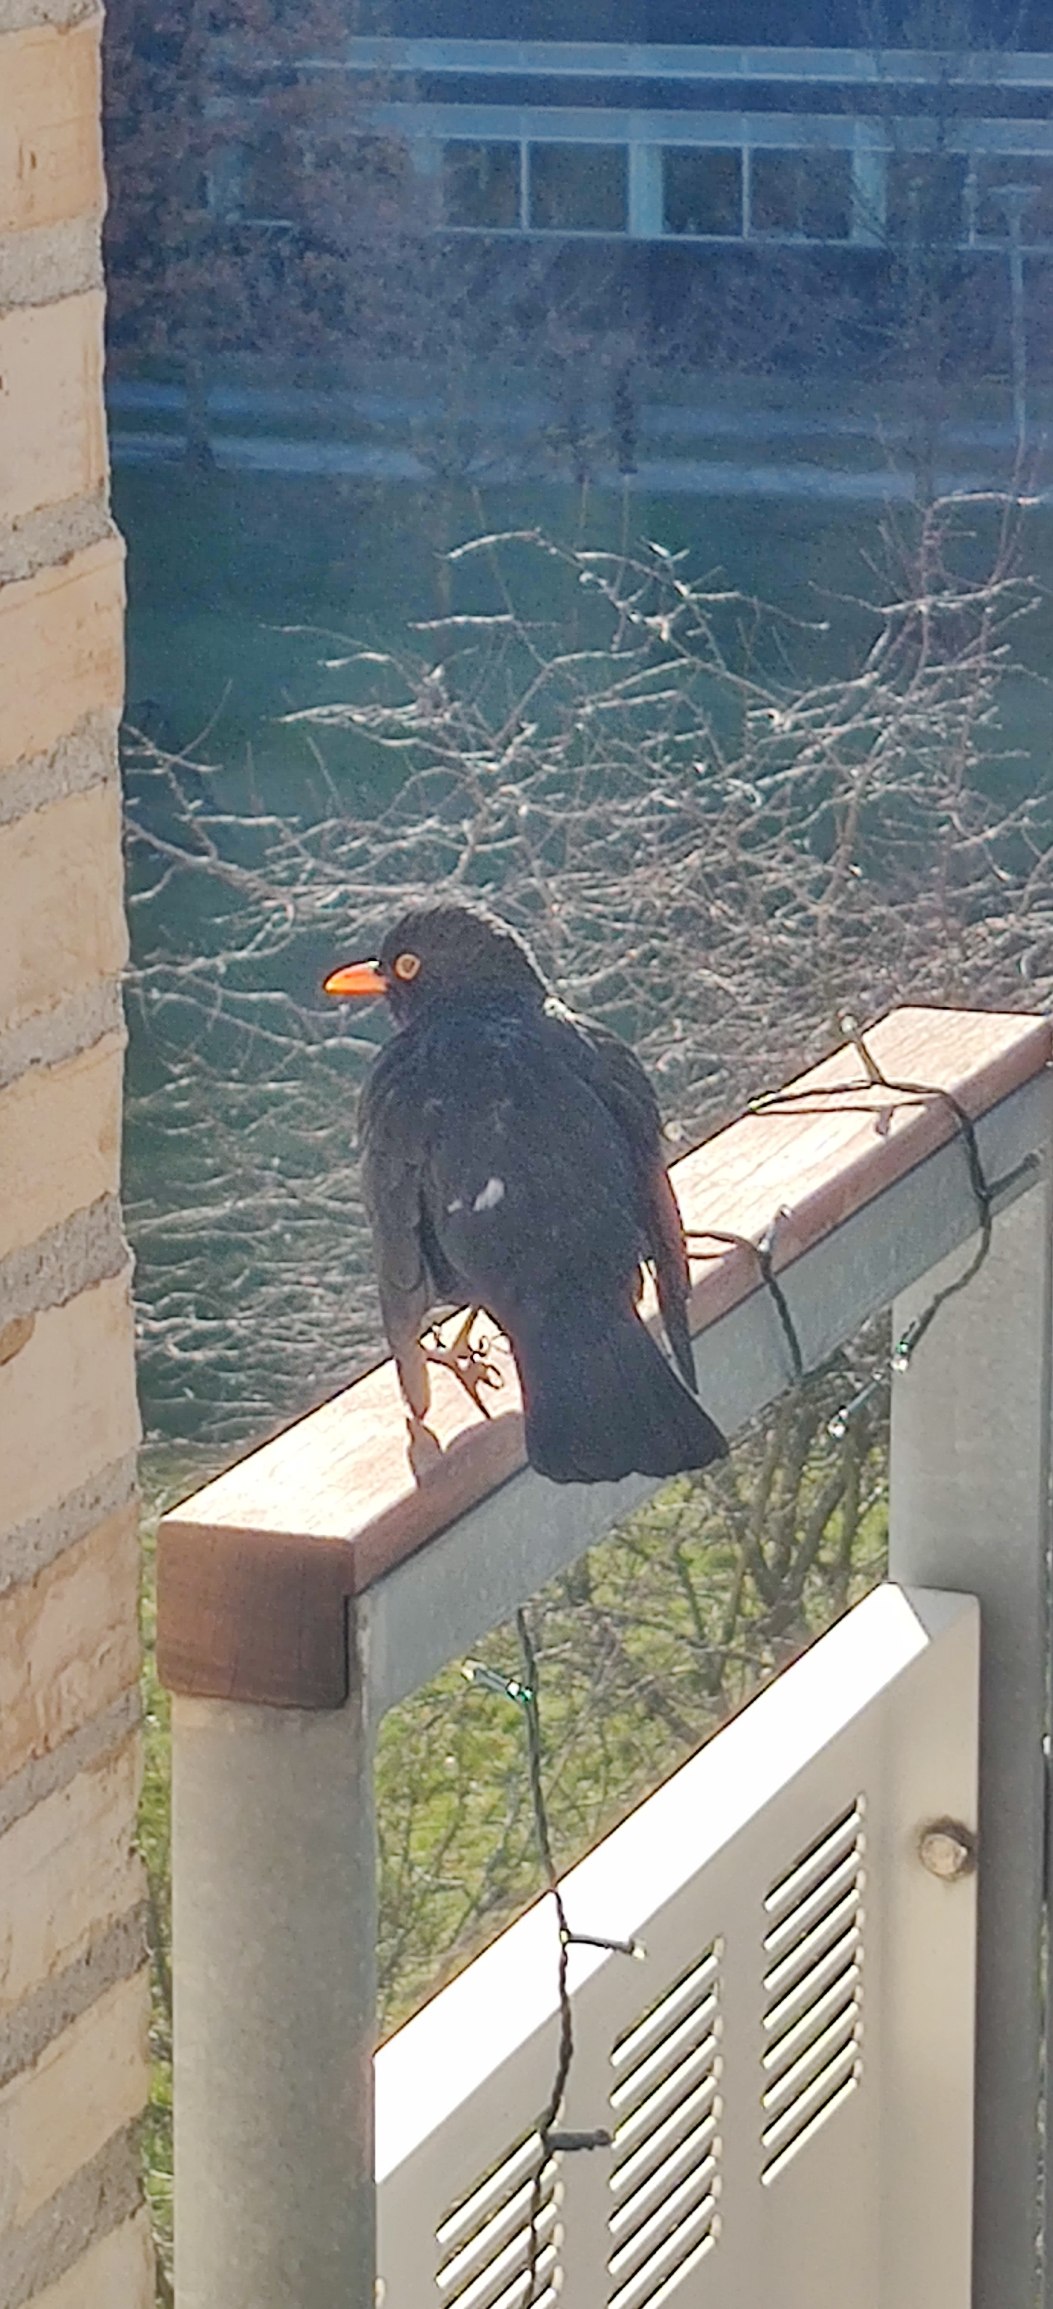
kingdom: Animalia
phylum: Chordata
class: Aves
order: Passeriformes
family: Turdidae
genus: Turdus
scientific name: Turdus merula
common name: Solsort
